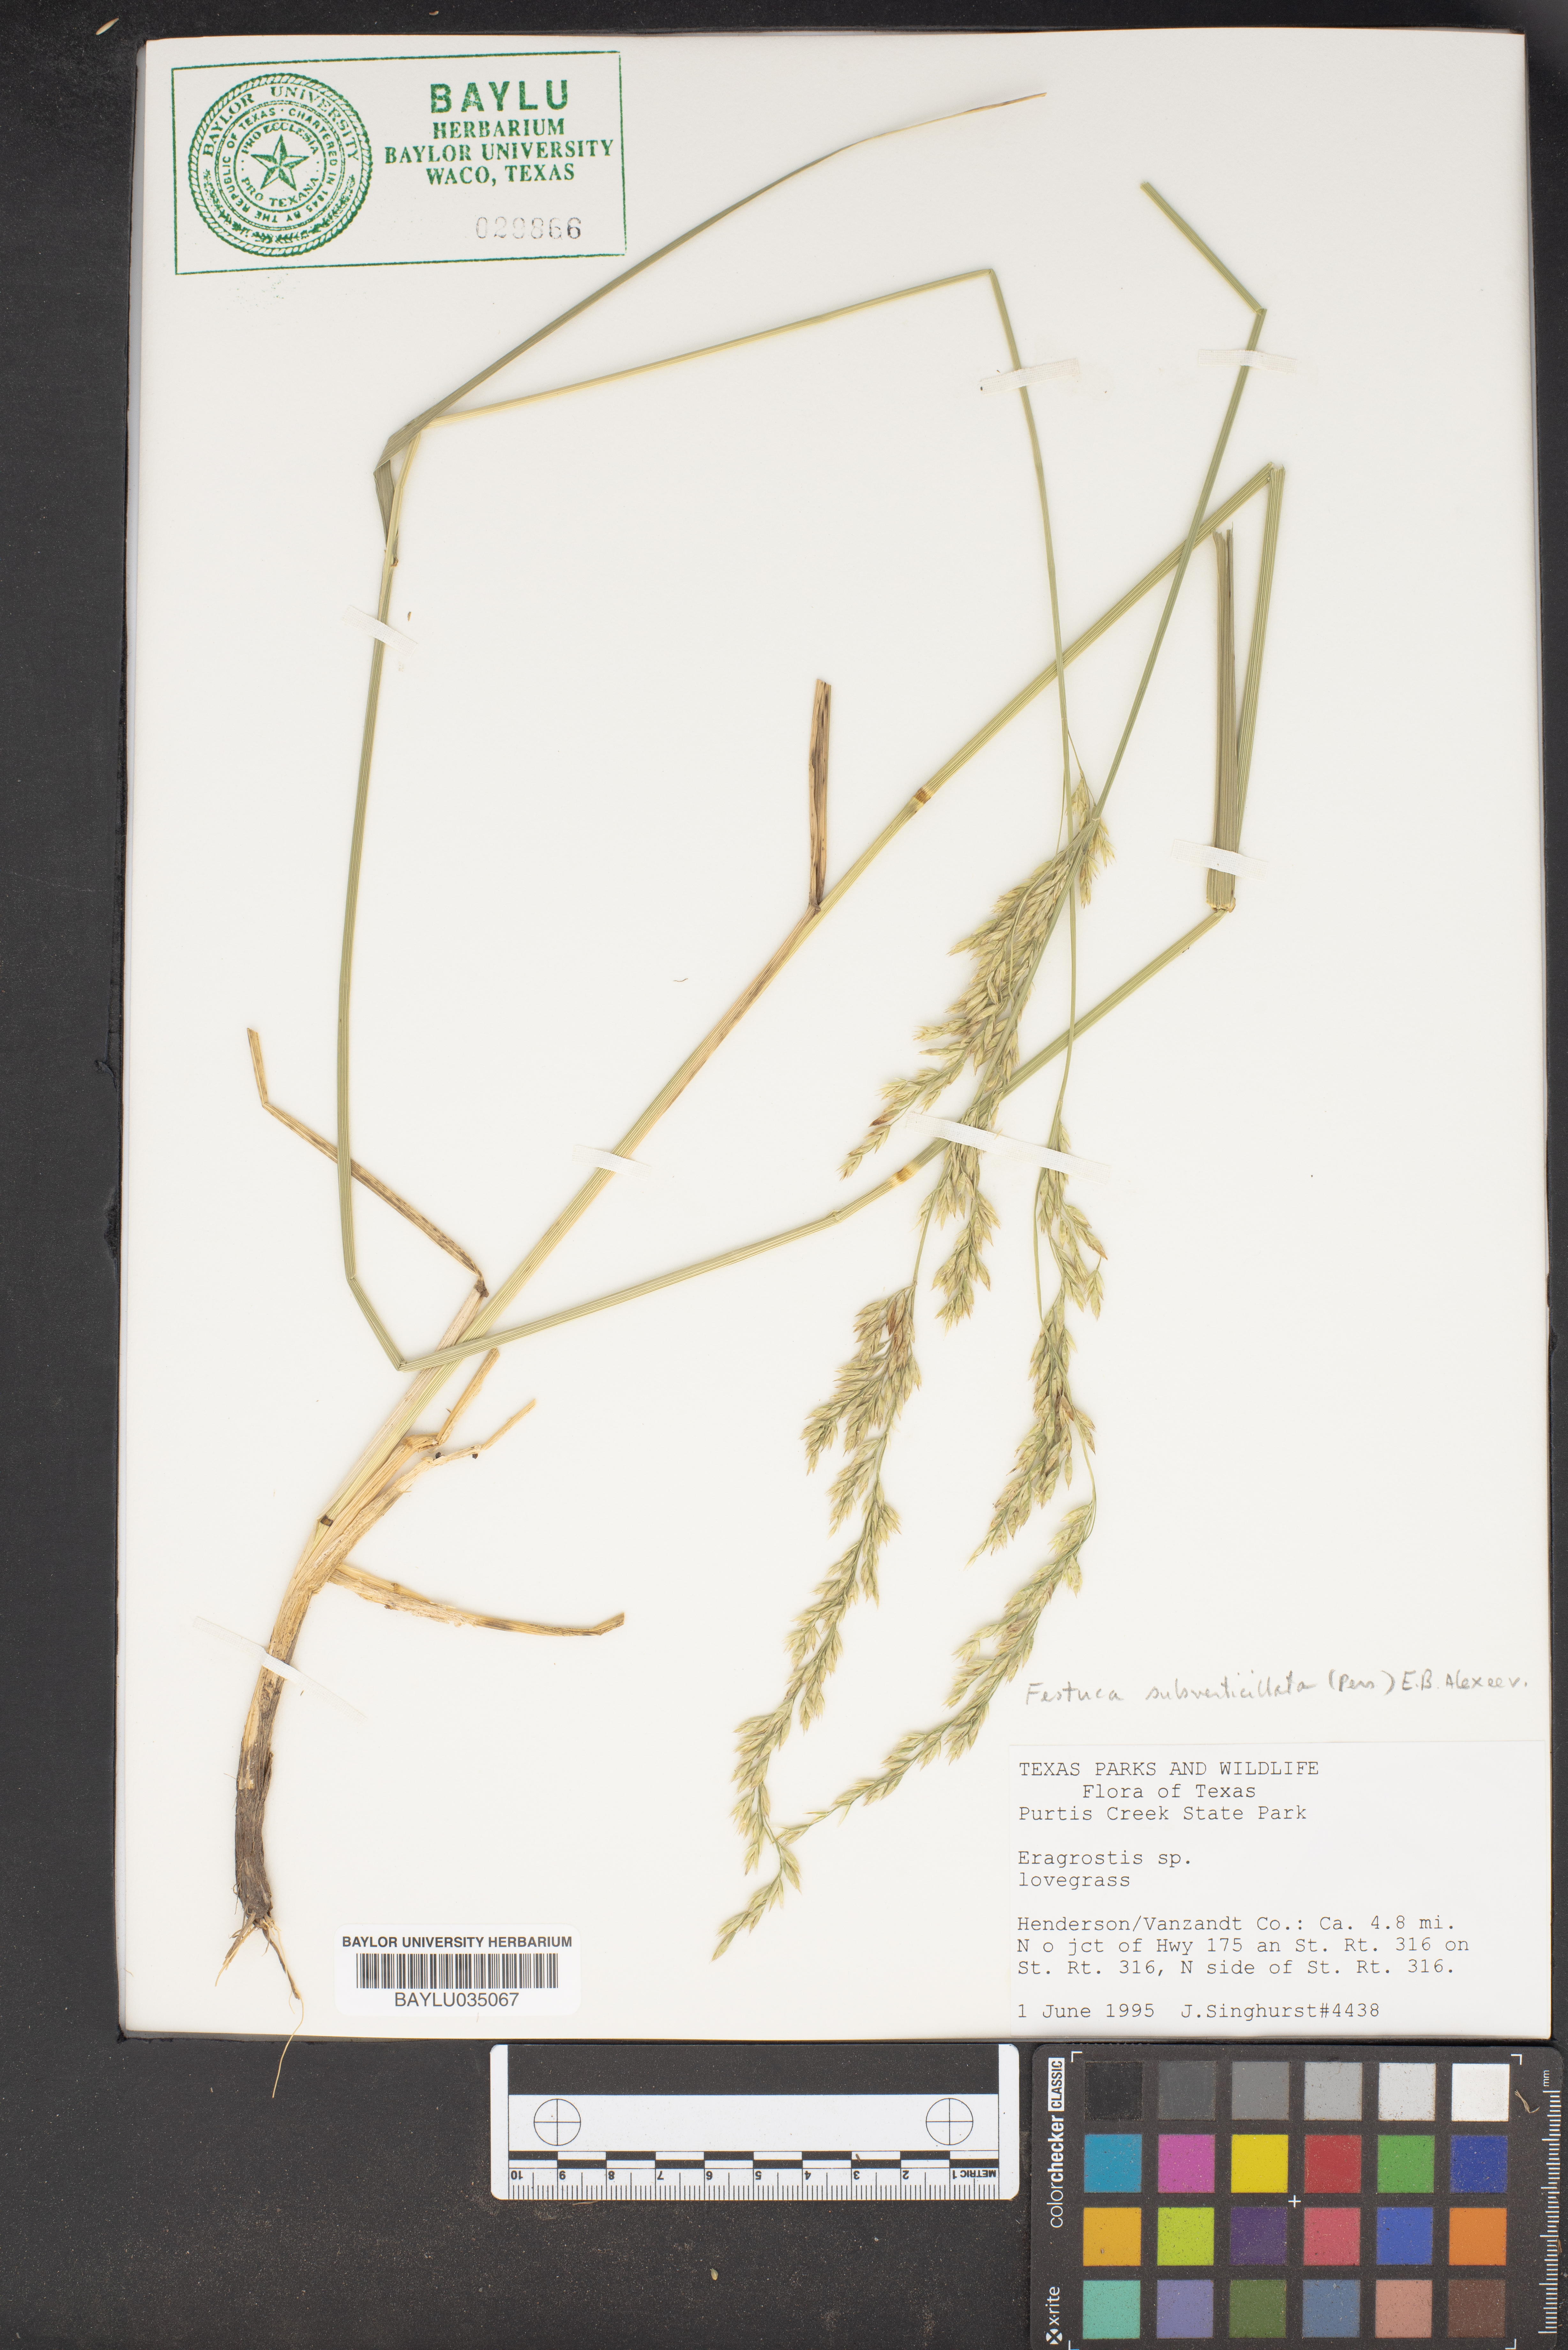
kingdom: Plantae
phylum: Tracheophyta
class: Liliopsida
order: Poales
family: Poaceae
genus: Eragrostis
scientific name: Eragrostis
